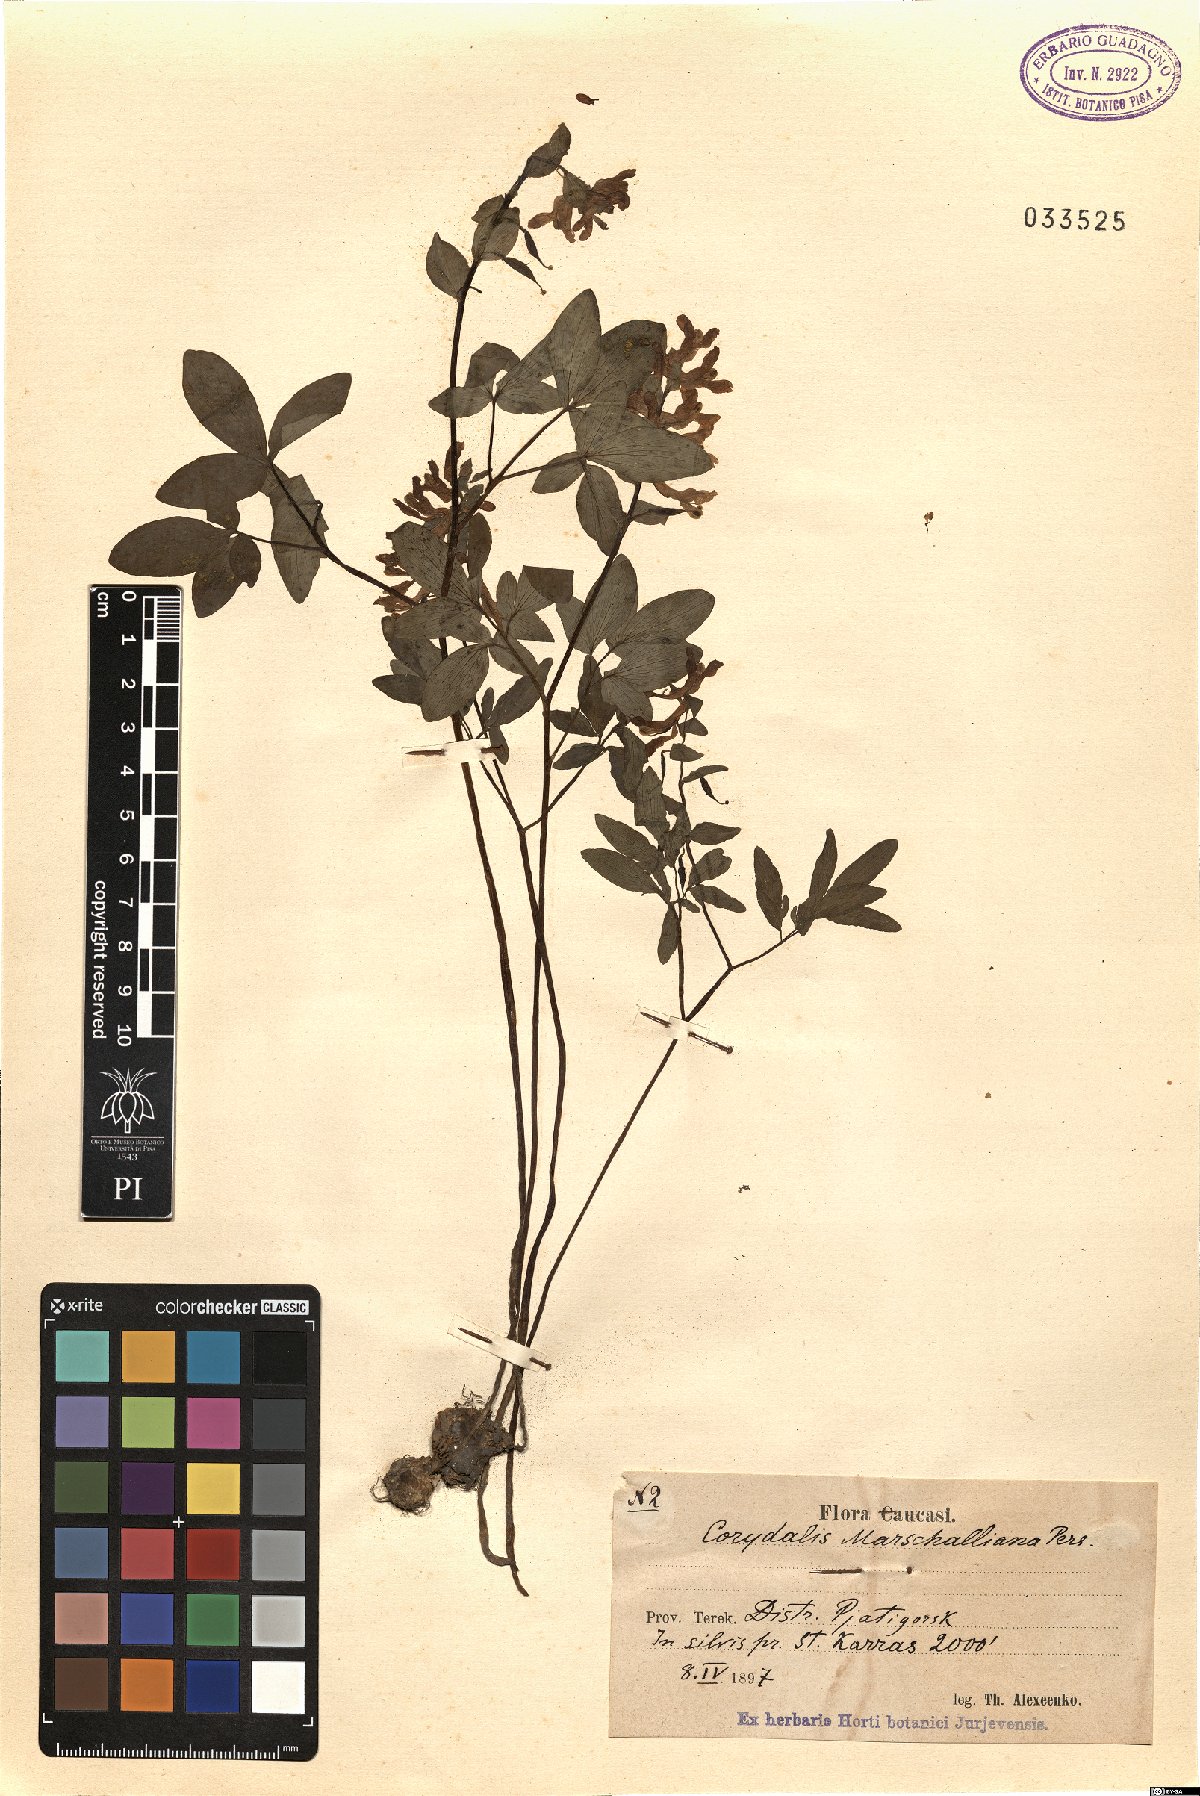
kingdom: Plantae
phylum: Tracheophyta
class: Magnoliopsida
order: Ranunculales
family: Papaveraceae
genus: Corydalis
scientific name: Corydalis cava
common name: Hollowroot
